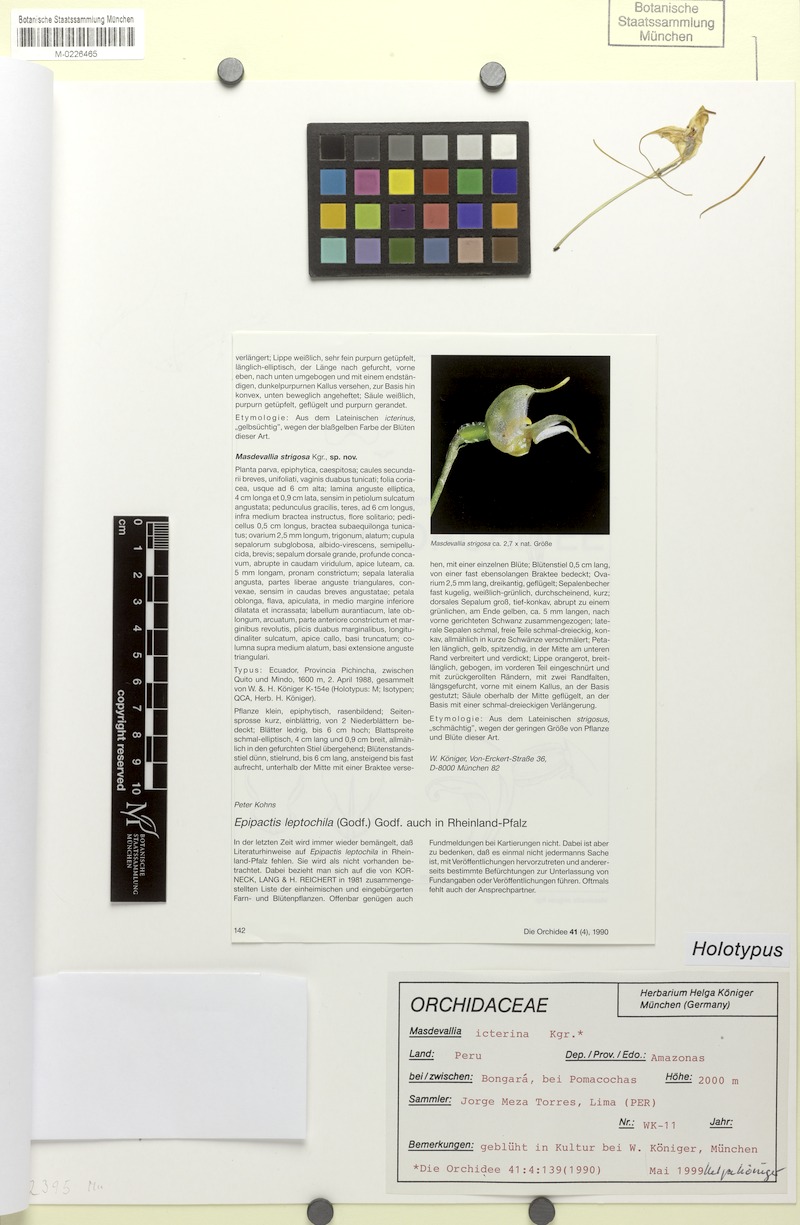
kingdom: Plantae
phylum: Tracheophyta
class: Liliopsida
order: Asparagales
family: Orchidaceae
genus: Masdevallia
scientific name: Masdevallia icterina
